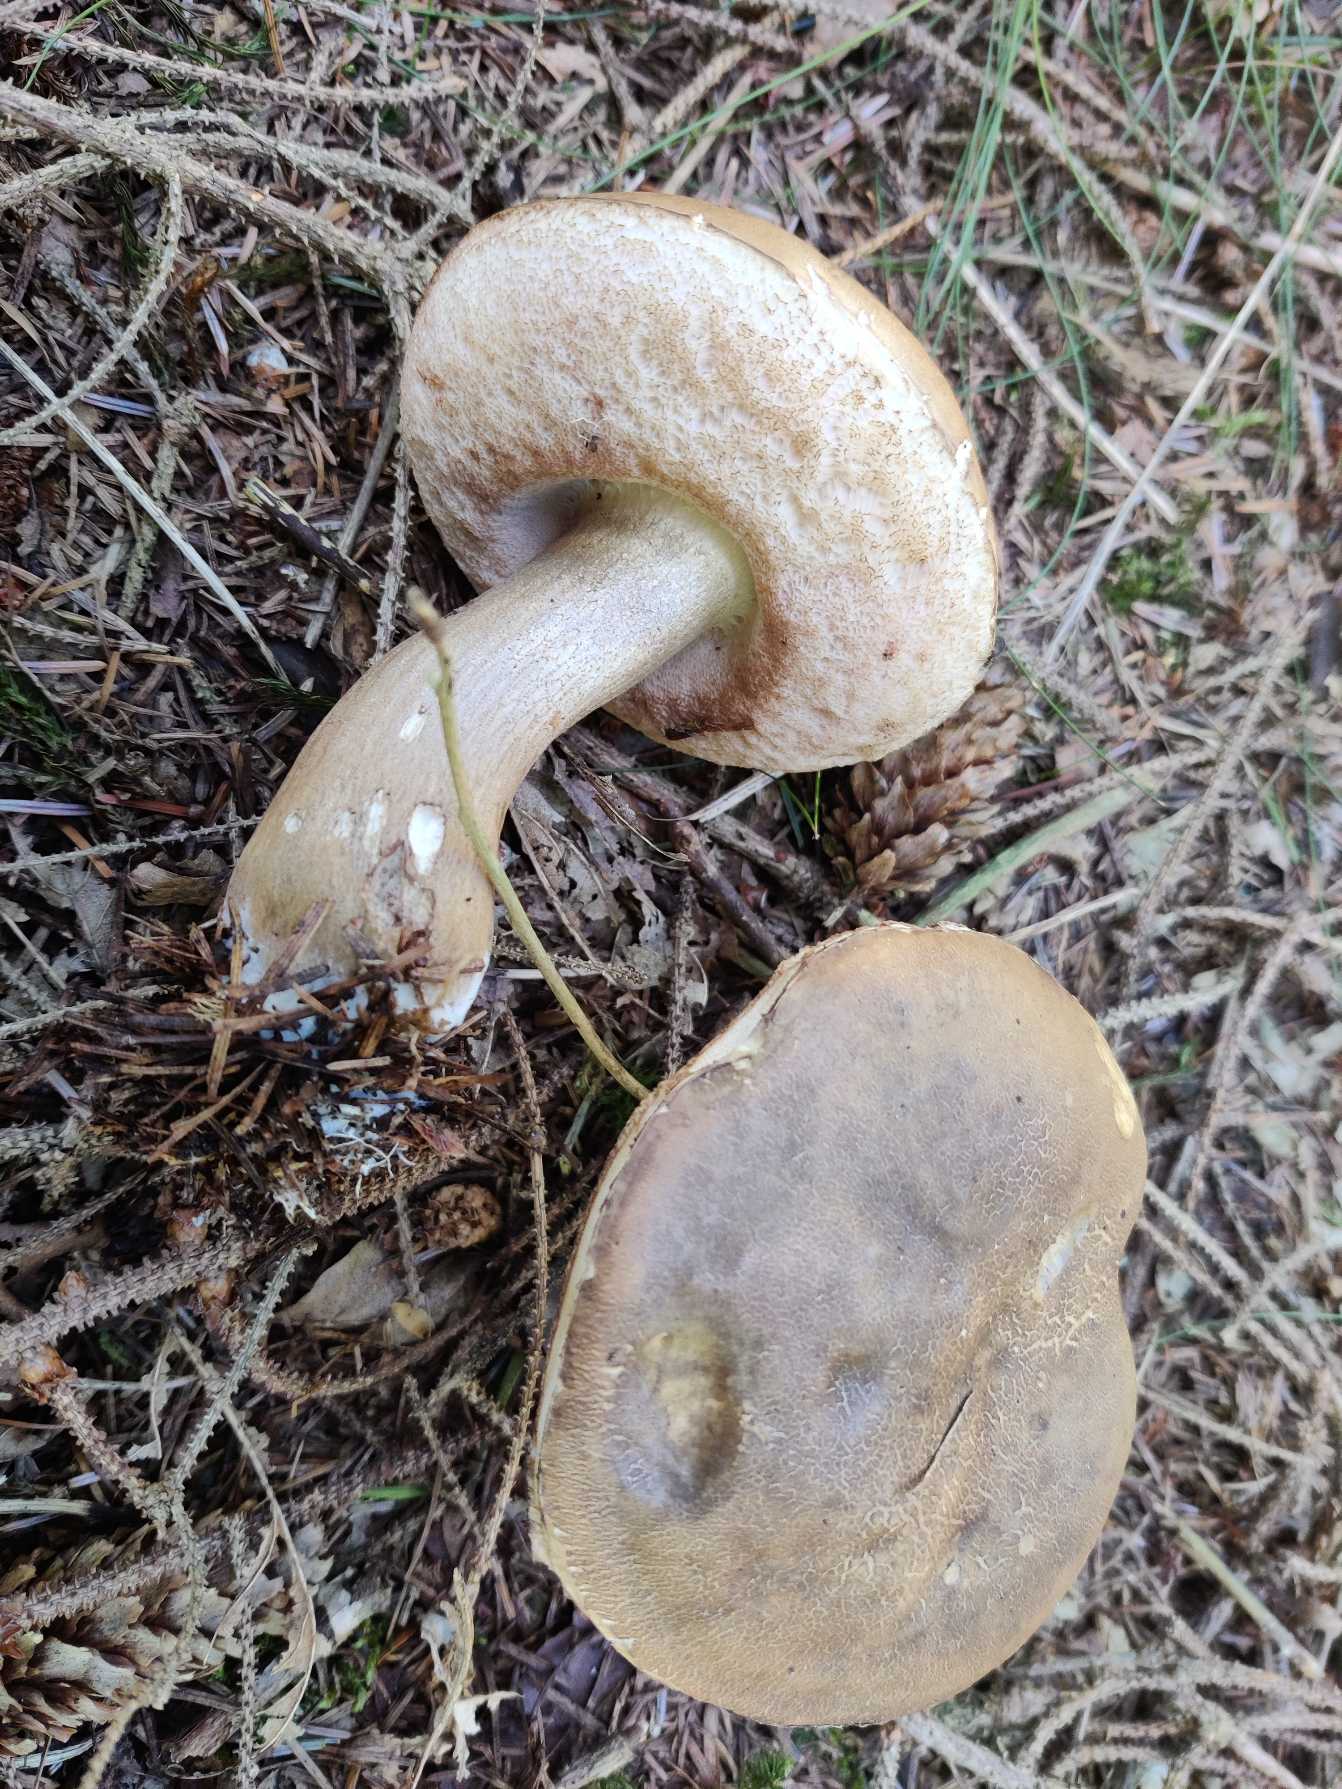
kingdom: Fungi
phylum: Basidiomycota
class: Agaricomycetes
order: Boletales
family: Boletaceae
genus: Tylopilus
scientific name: Tylopilus felleus
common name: Galderørhat
